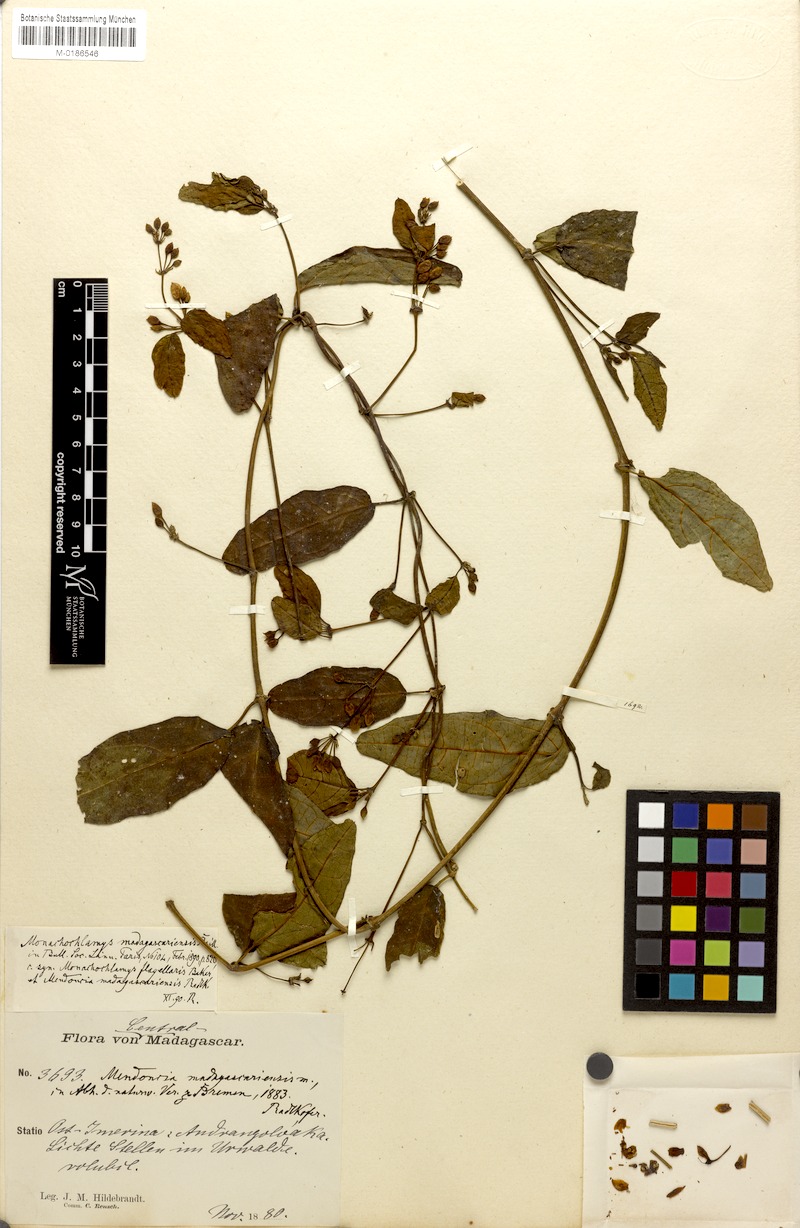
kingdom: Plantae
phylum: Tracheophyta
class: Magnoliopsida
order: Lamiales
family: Acanthaceae
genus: Mendoncia
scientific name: Mendoncia flagellaris
